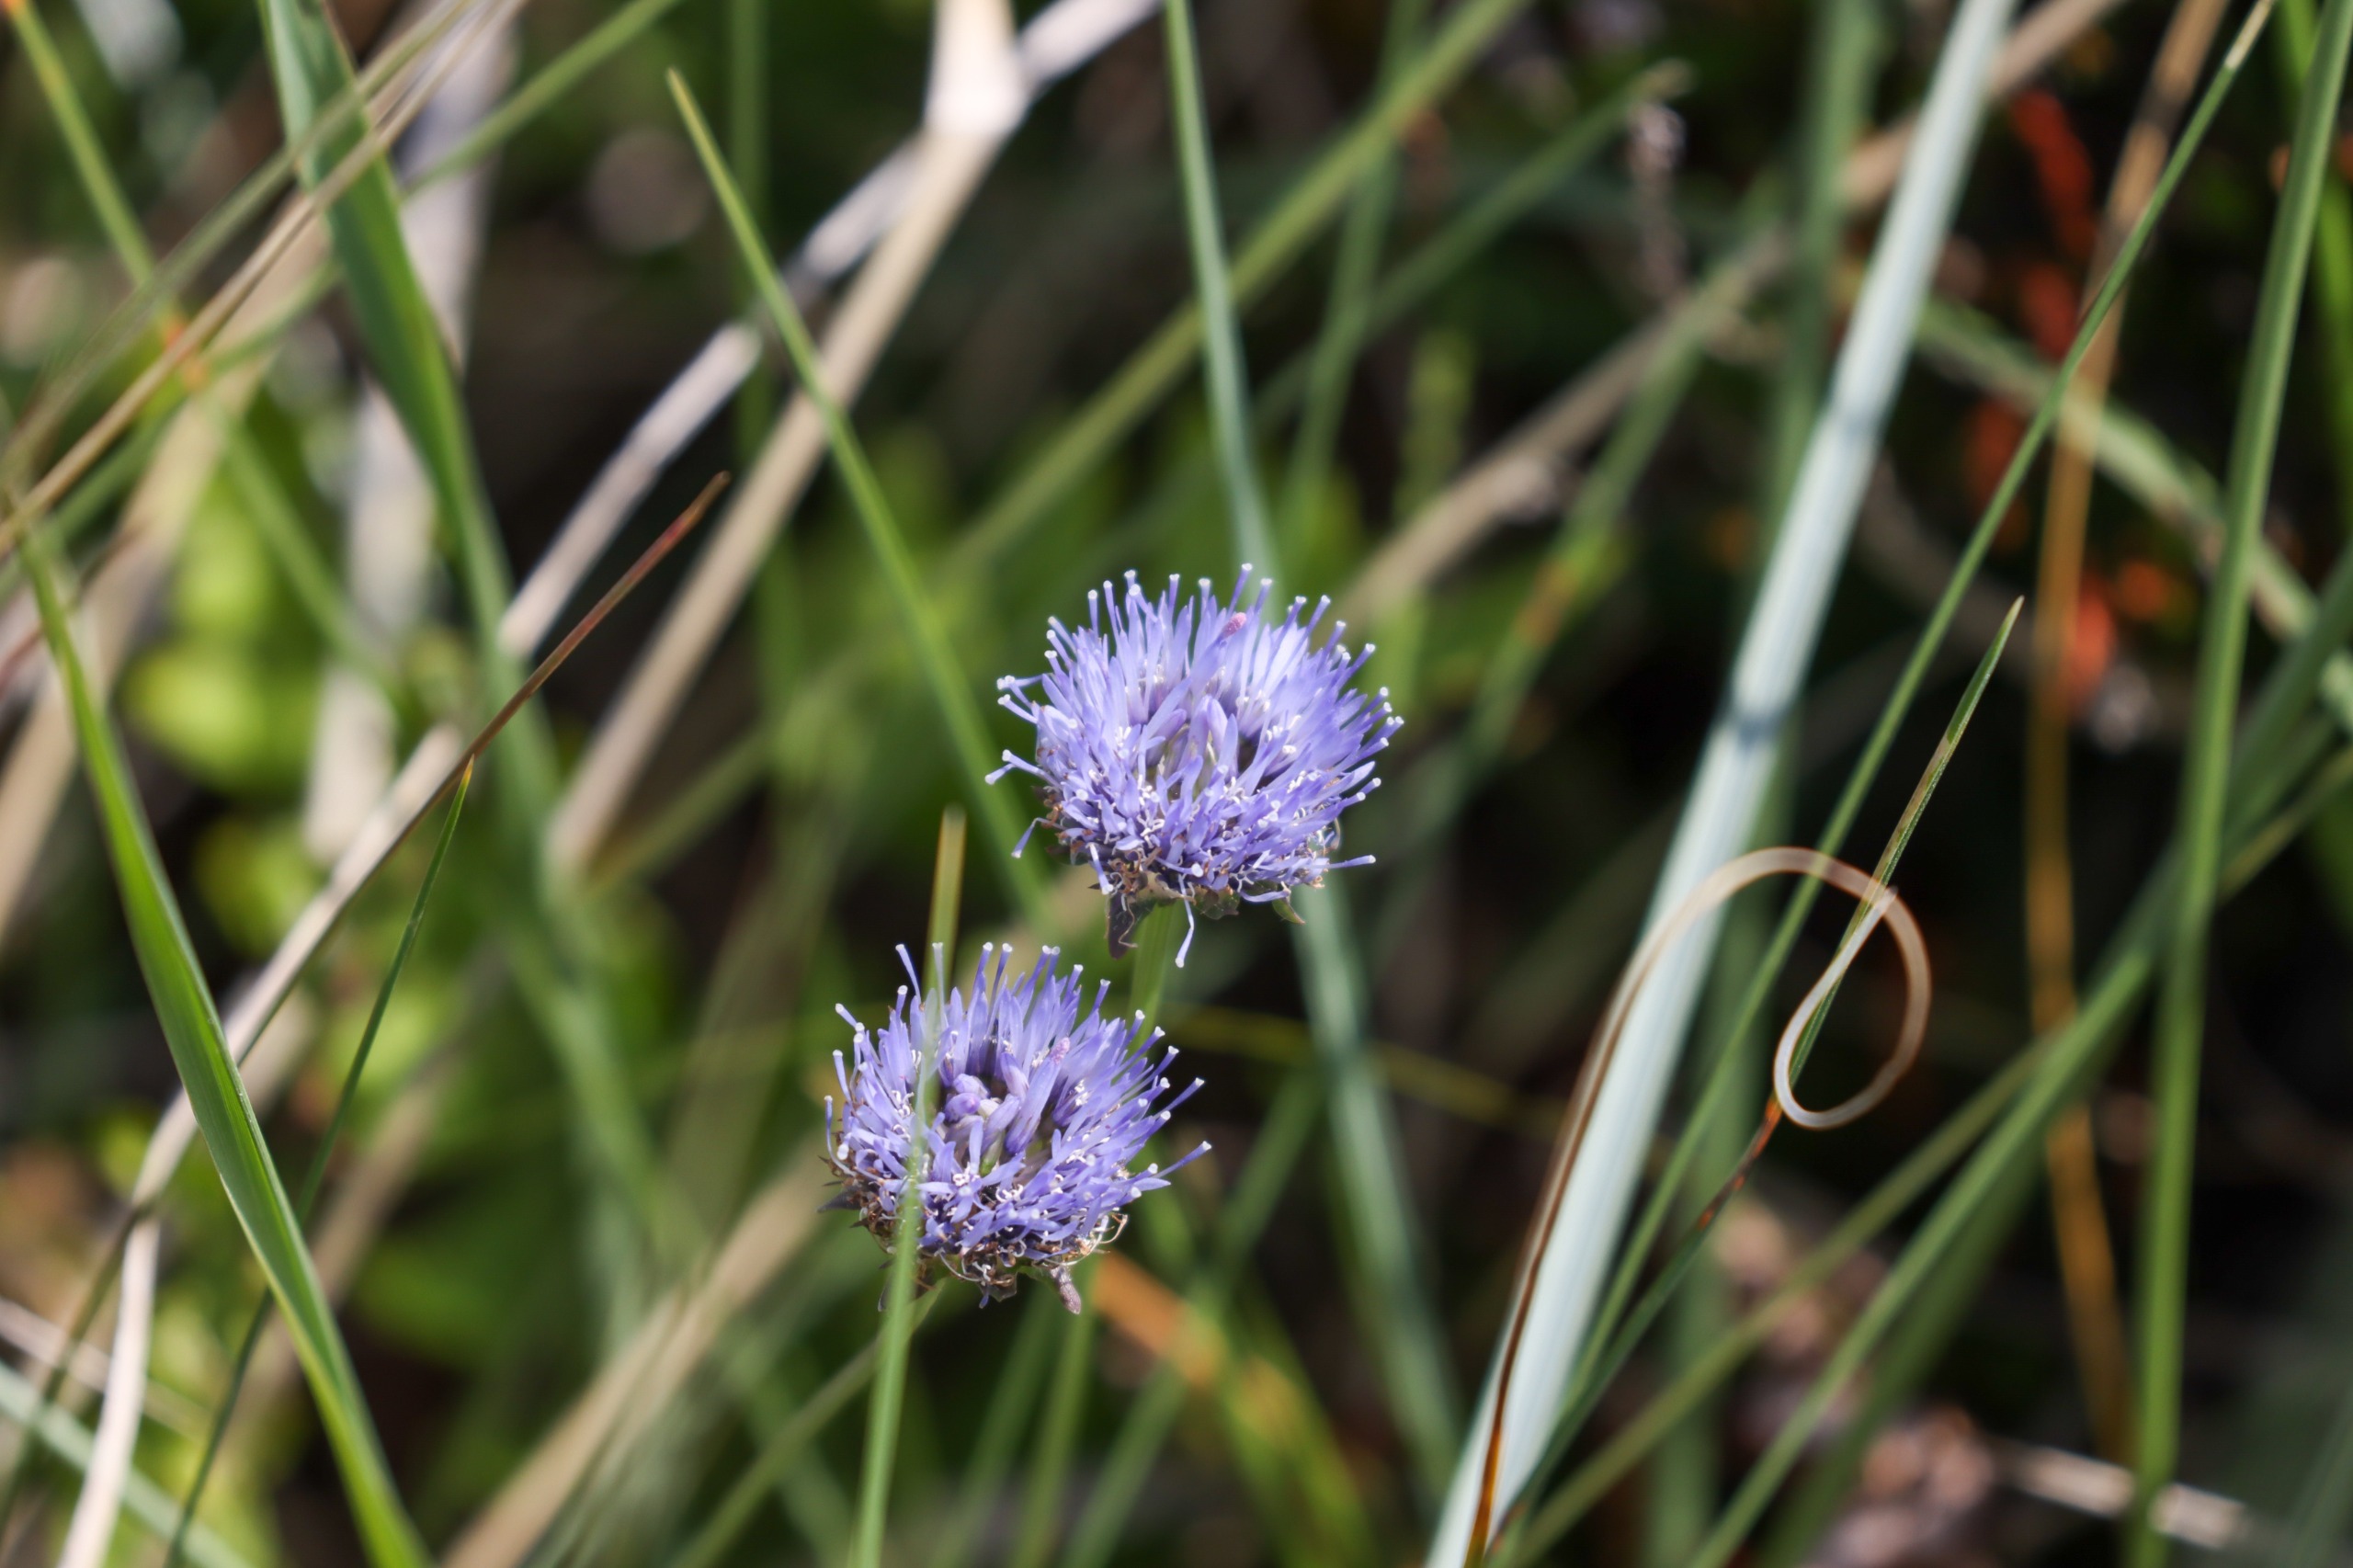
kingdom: Plantae
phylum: Tracheophyta
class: Magnoliopsida
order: Asterales
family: Campanulaceae
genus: Jasione
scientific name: Jasione montana
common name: Blåmunke
